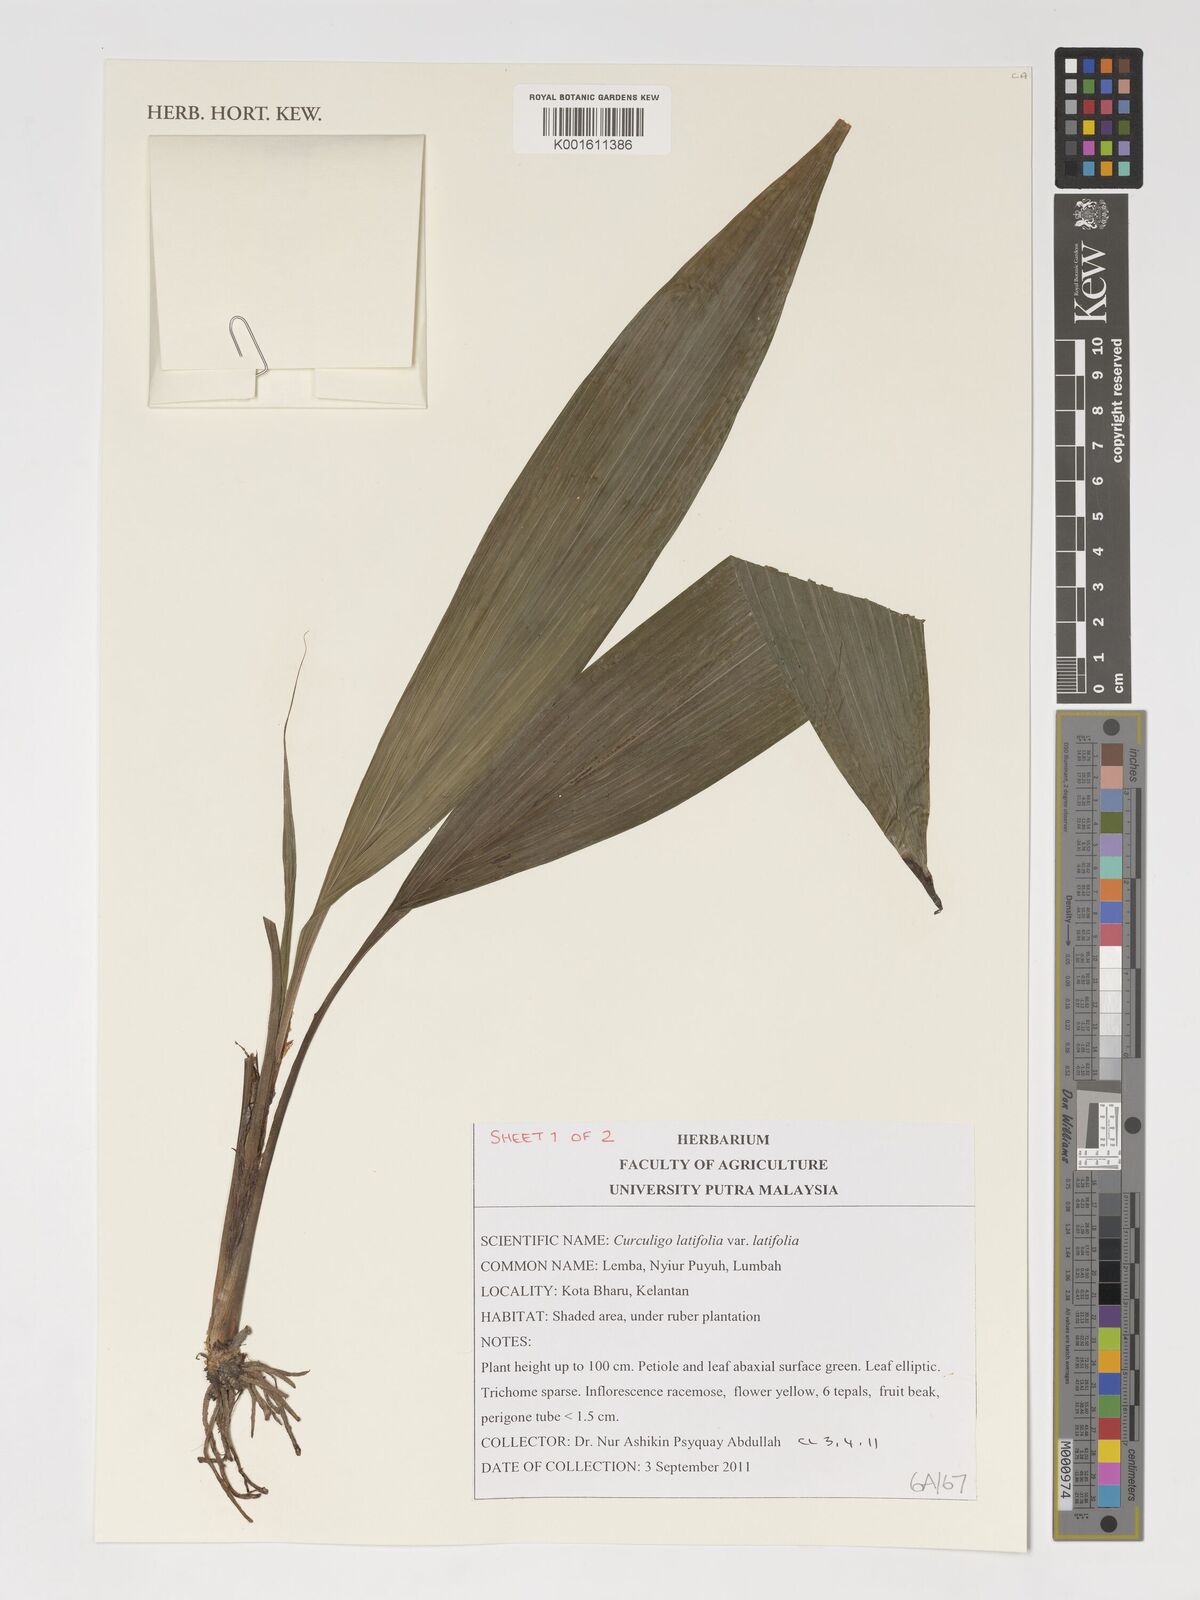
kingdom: Plantae
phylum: Tracheophyta
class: Liliopsida
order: Asparagales
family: Hypoxidaceae
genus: Curculigo
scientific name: Curculigo latifolia
